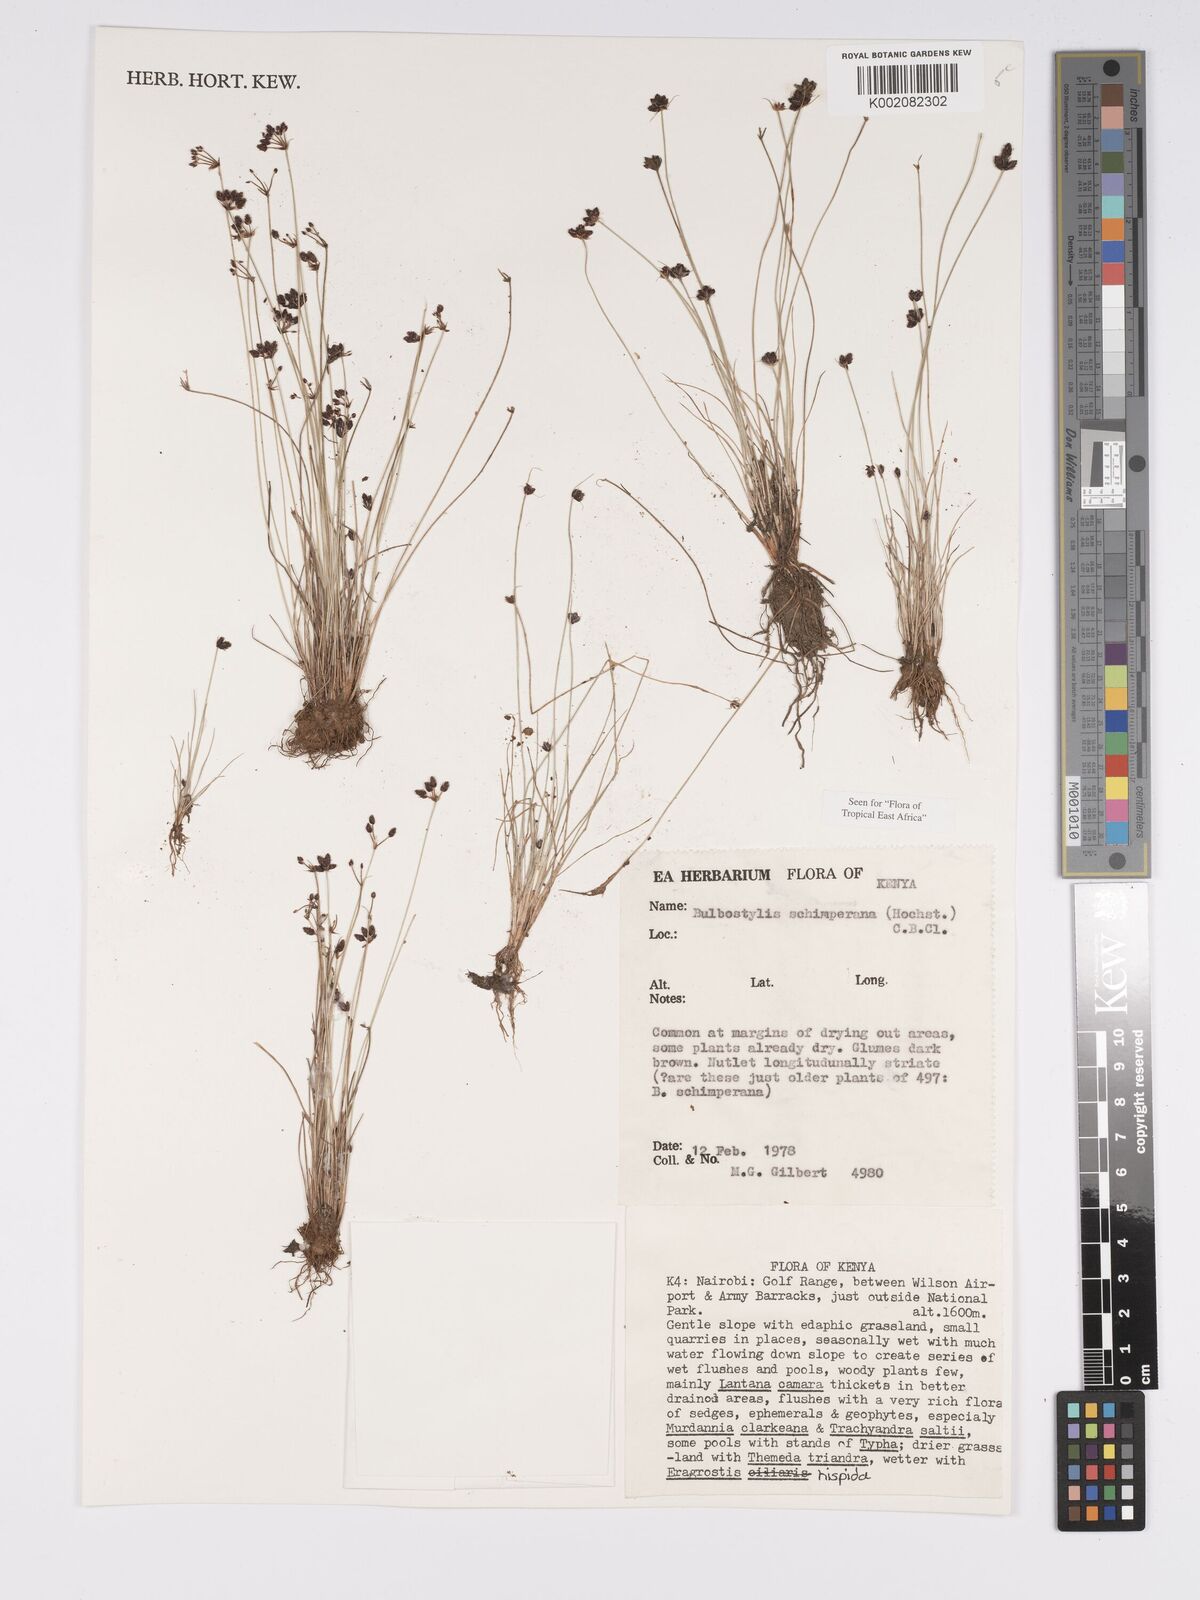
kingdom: Plantae
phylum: Tracheophyta
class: Liliopsida
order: Poales
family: Cyperaceae
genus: Bulbostylis
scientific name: Bulbostylis schimperiana
